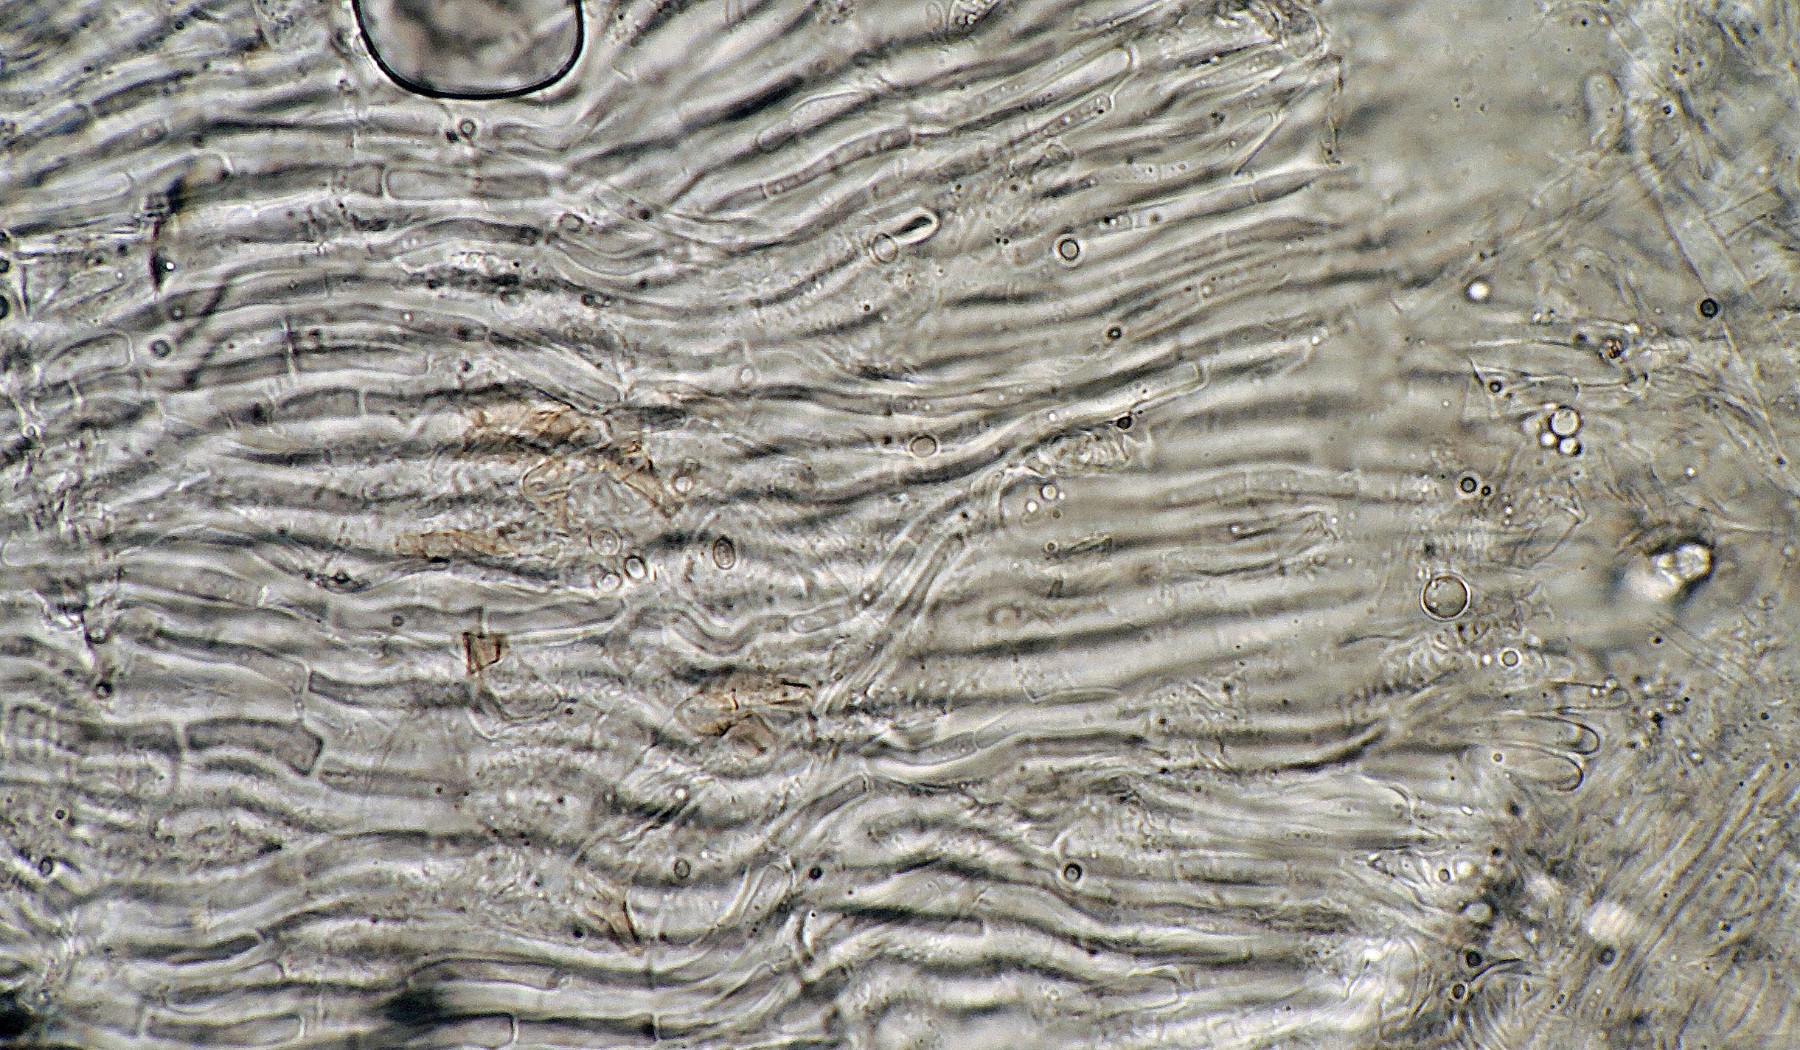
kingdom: Fungi
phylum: Ascomycota
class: Leotiomycetes
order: Helotiales
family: Pezizellaceae
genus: Allophylaria
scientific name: Allophylaria macrospora
